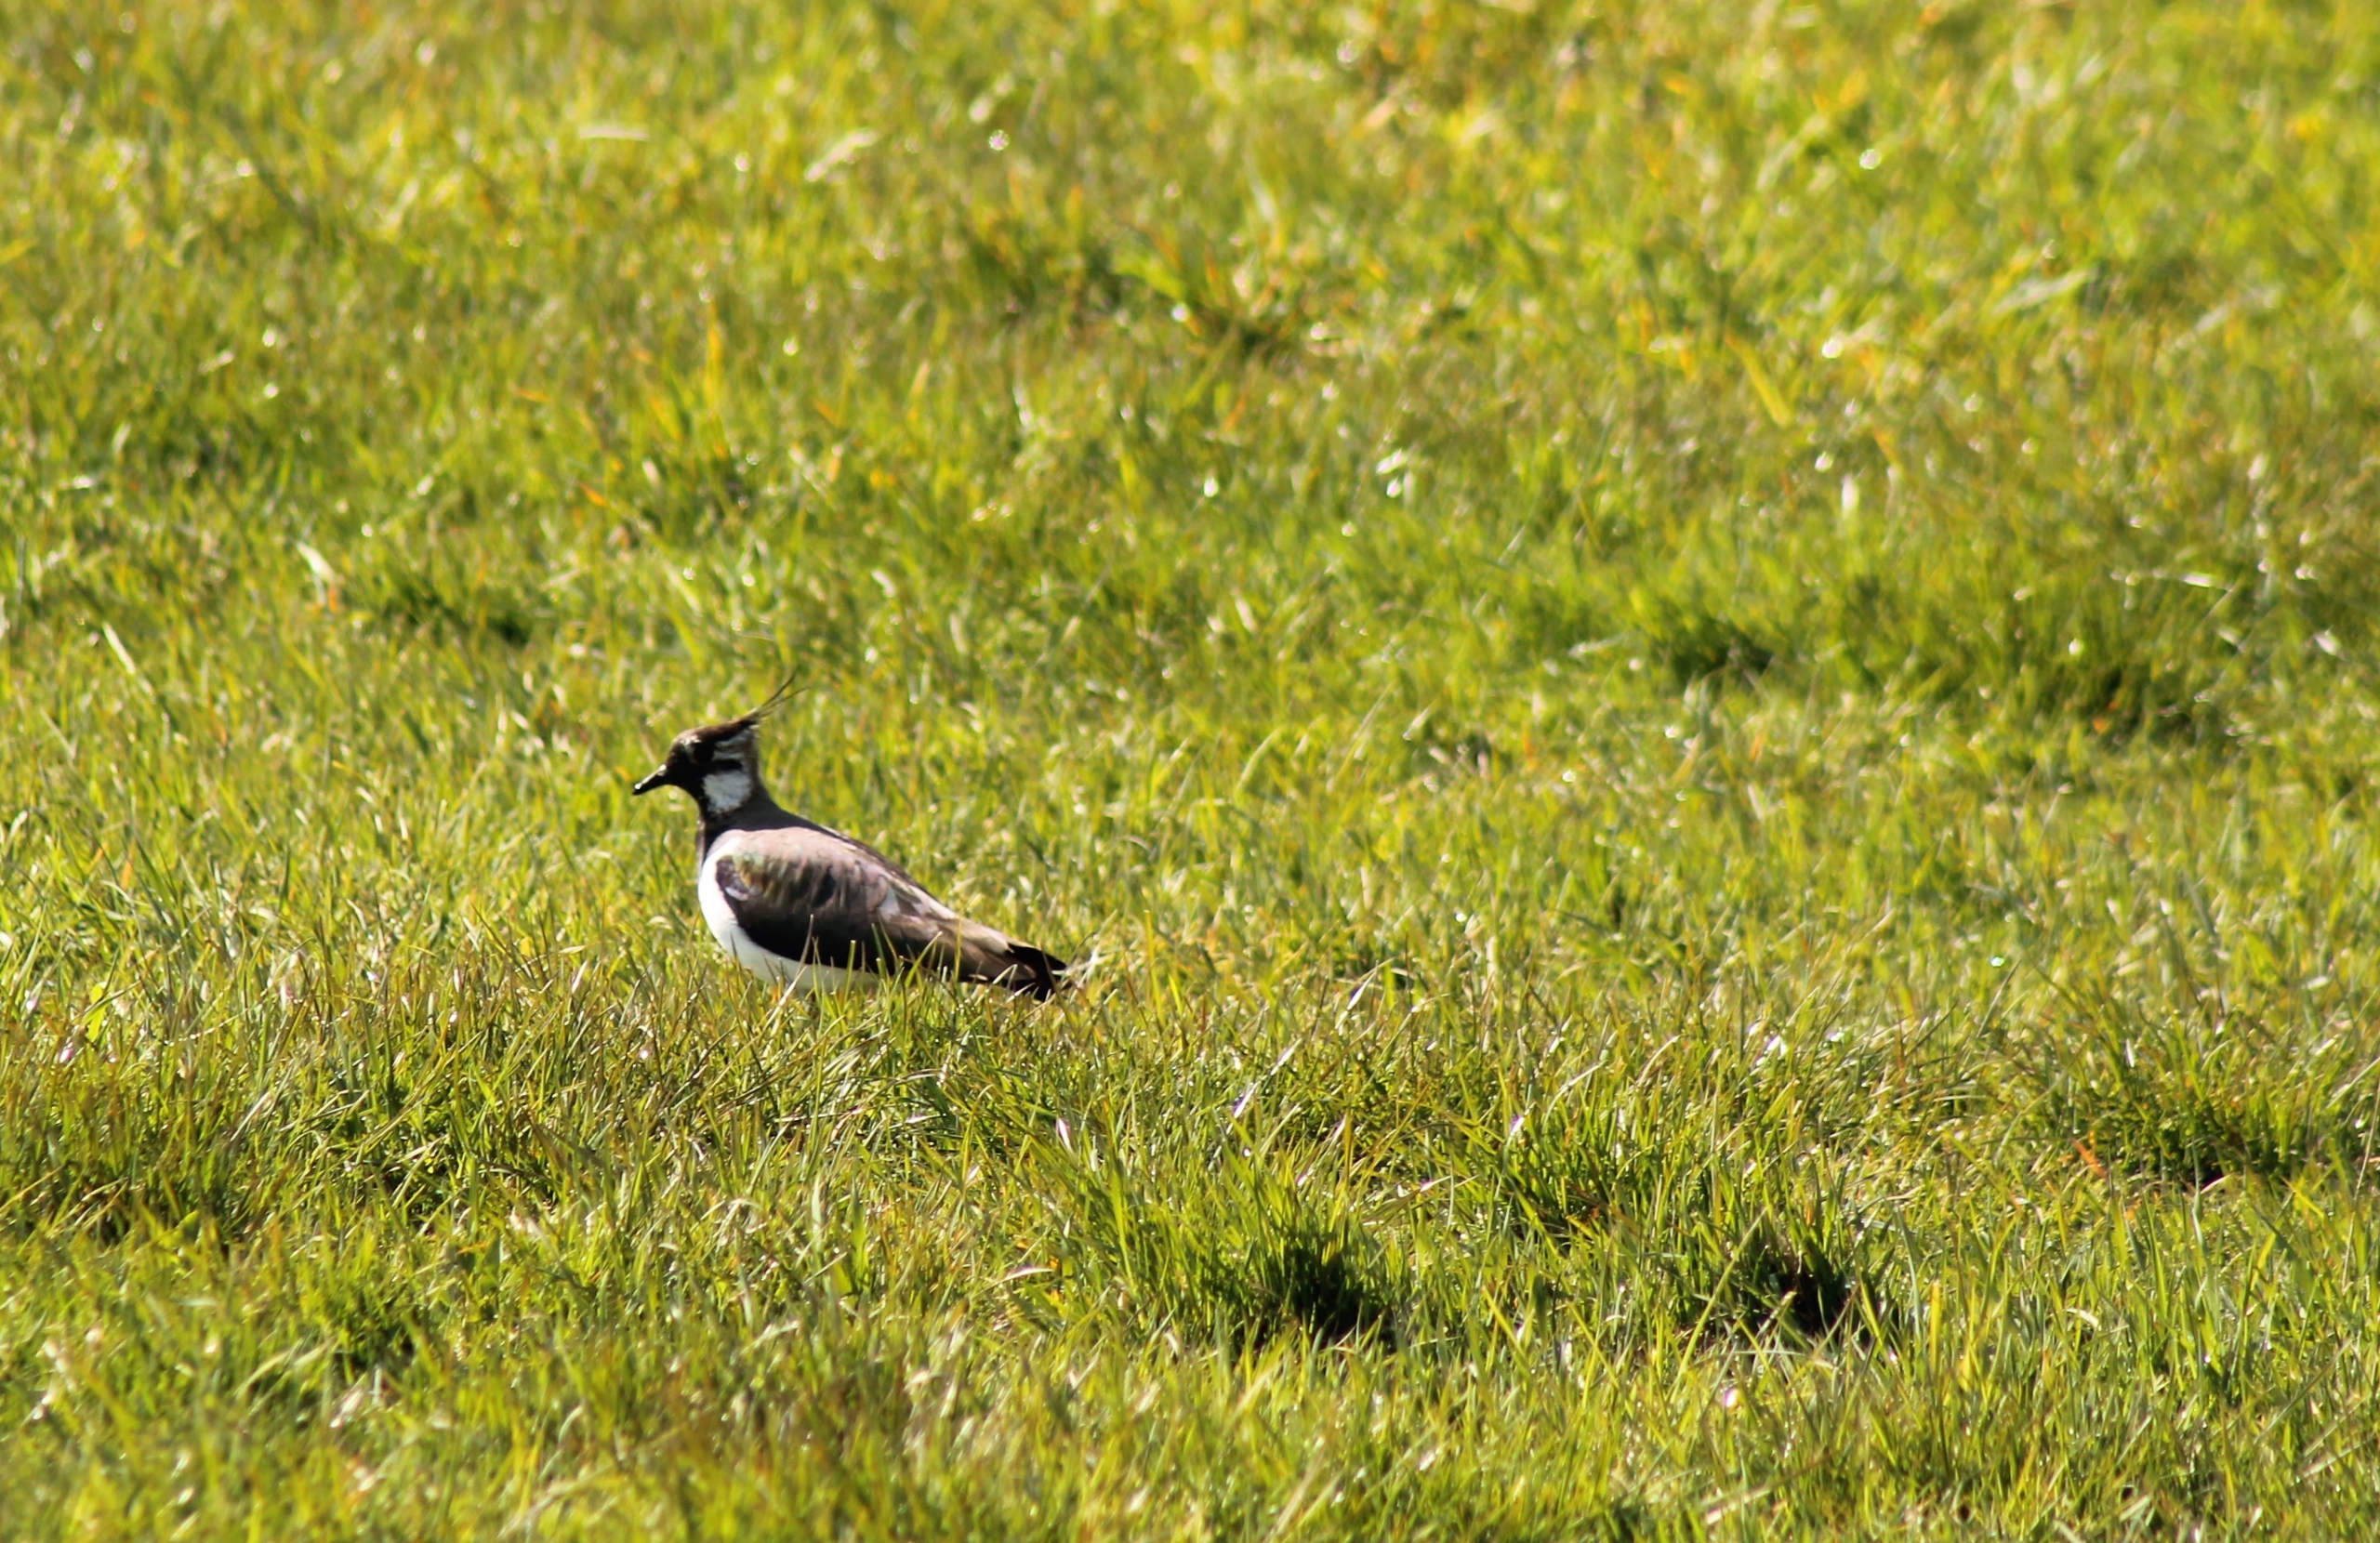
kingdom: Animalia
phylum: Chordata
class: Aves
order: Charadriiformes
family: Charadriidae
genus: Vanellus
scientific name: Vanellus vanellus
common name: Vibe
